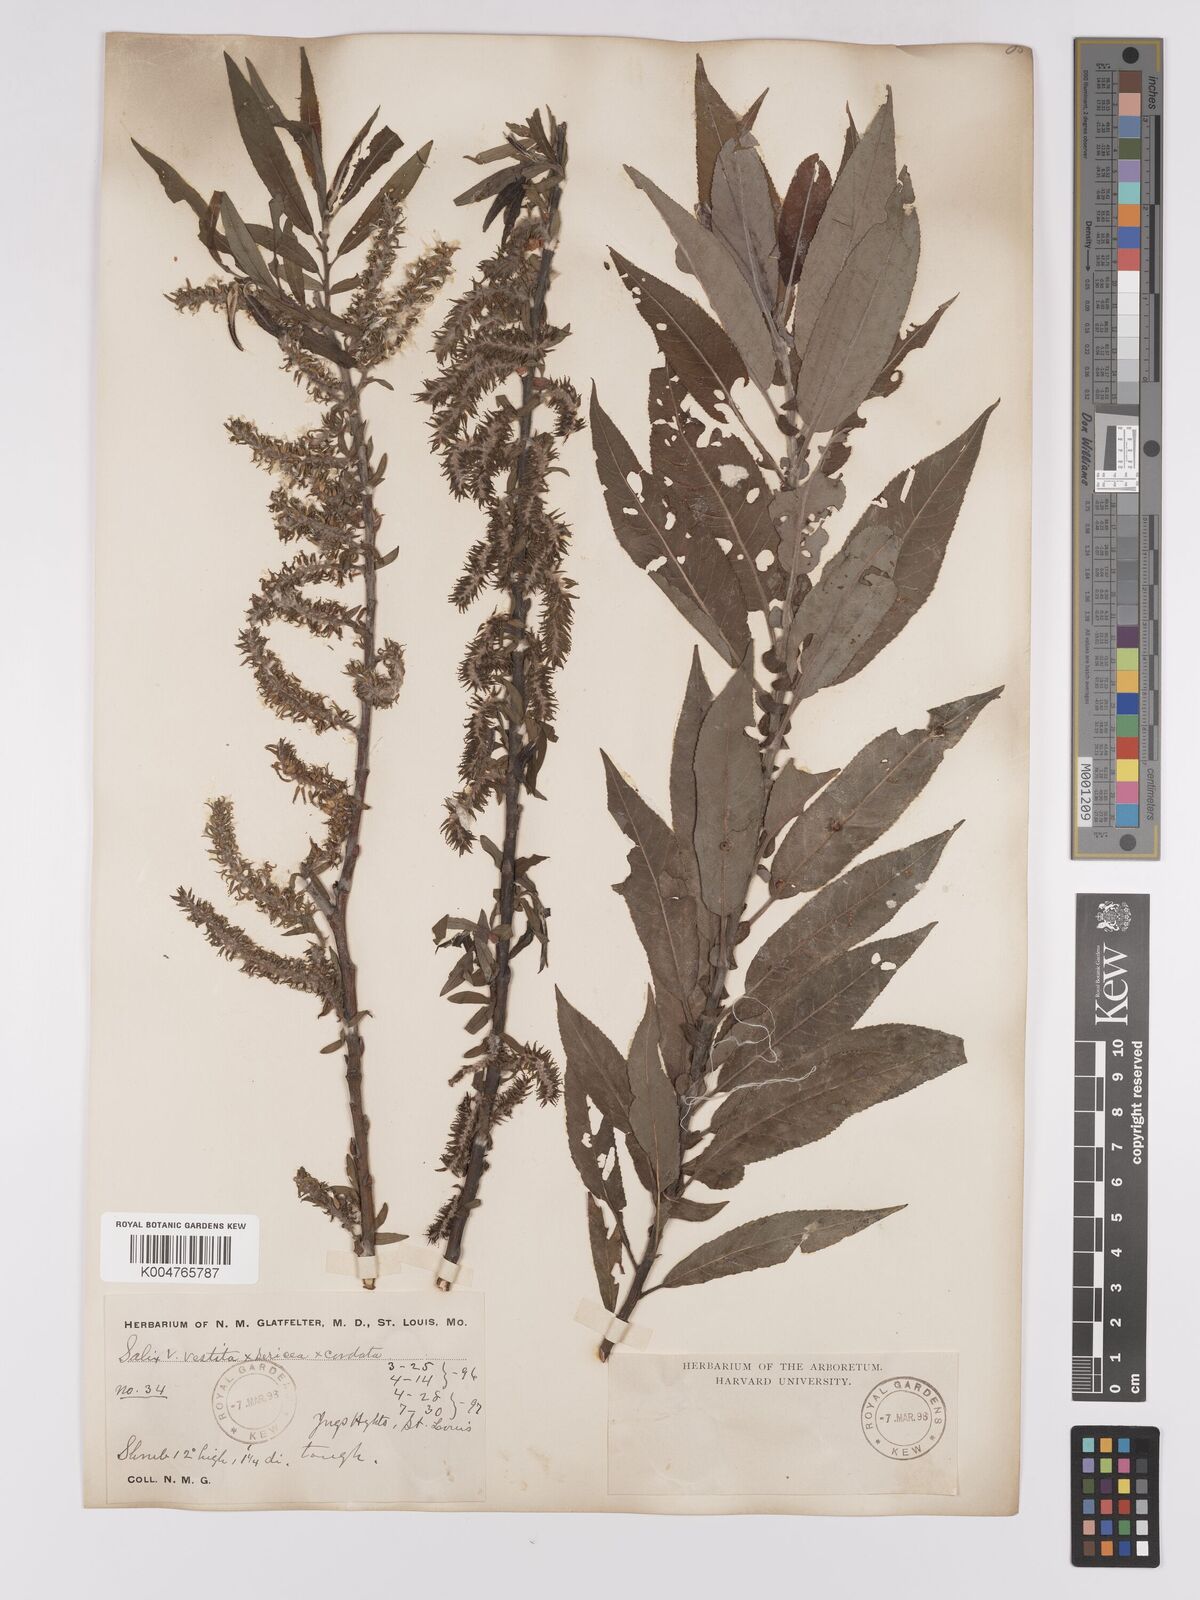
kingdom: Plantae
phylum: Tracheophyta
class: Magnoliopsida
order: Malpighiales
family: Salicaceae
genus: Salix
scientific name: Salix vestita
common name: Hairy willow
